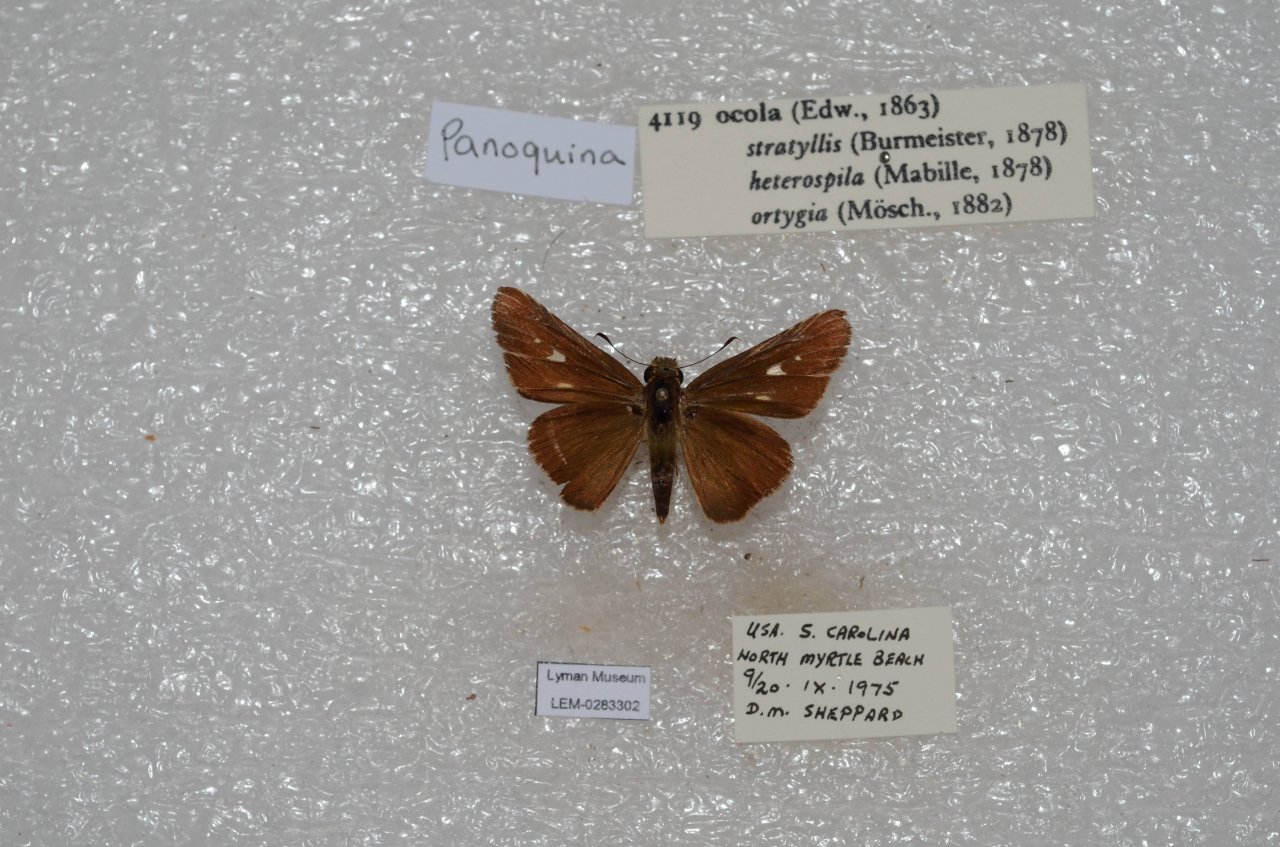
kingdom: Animalia
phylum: Arthropoda
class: Insecta
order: Lepidoptera
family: Hesperiidae
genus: Panoquina
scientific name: Panoquina ocola
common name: Ocola Skipper
